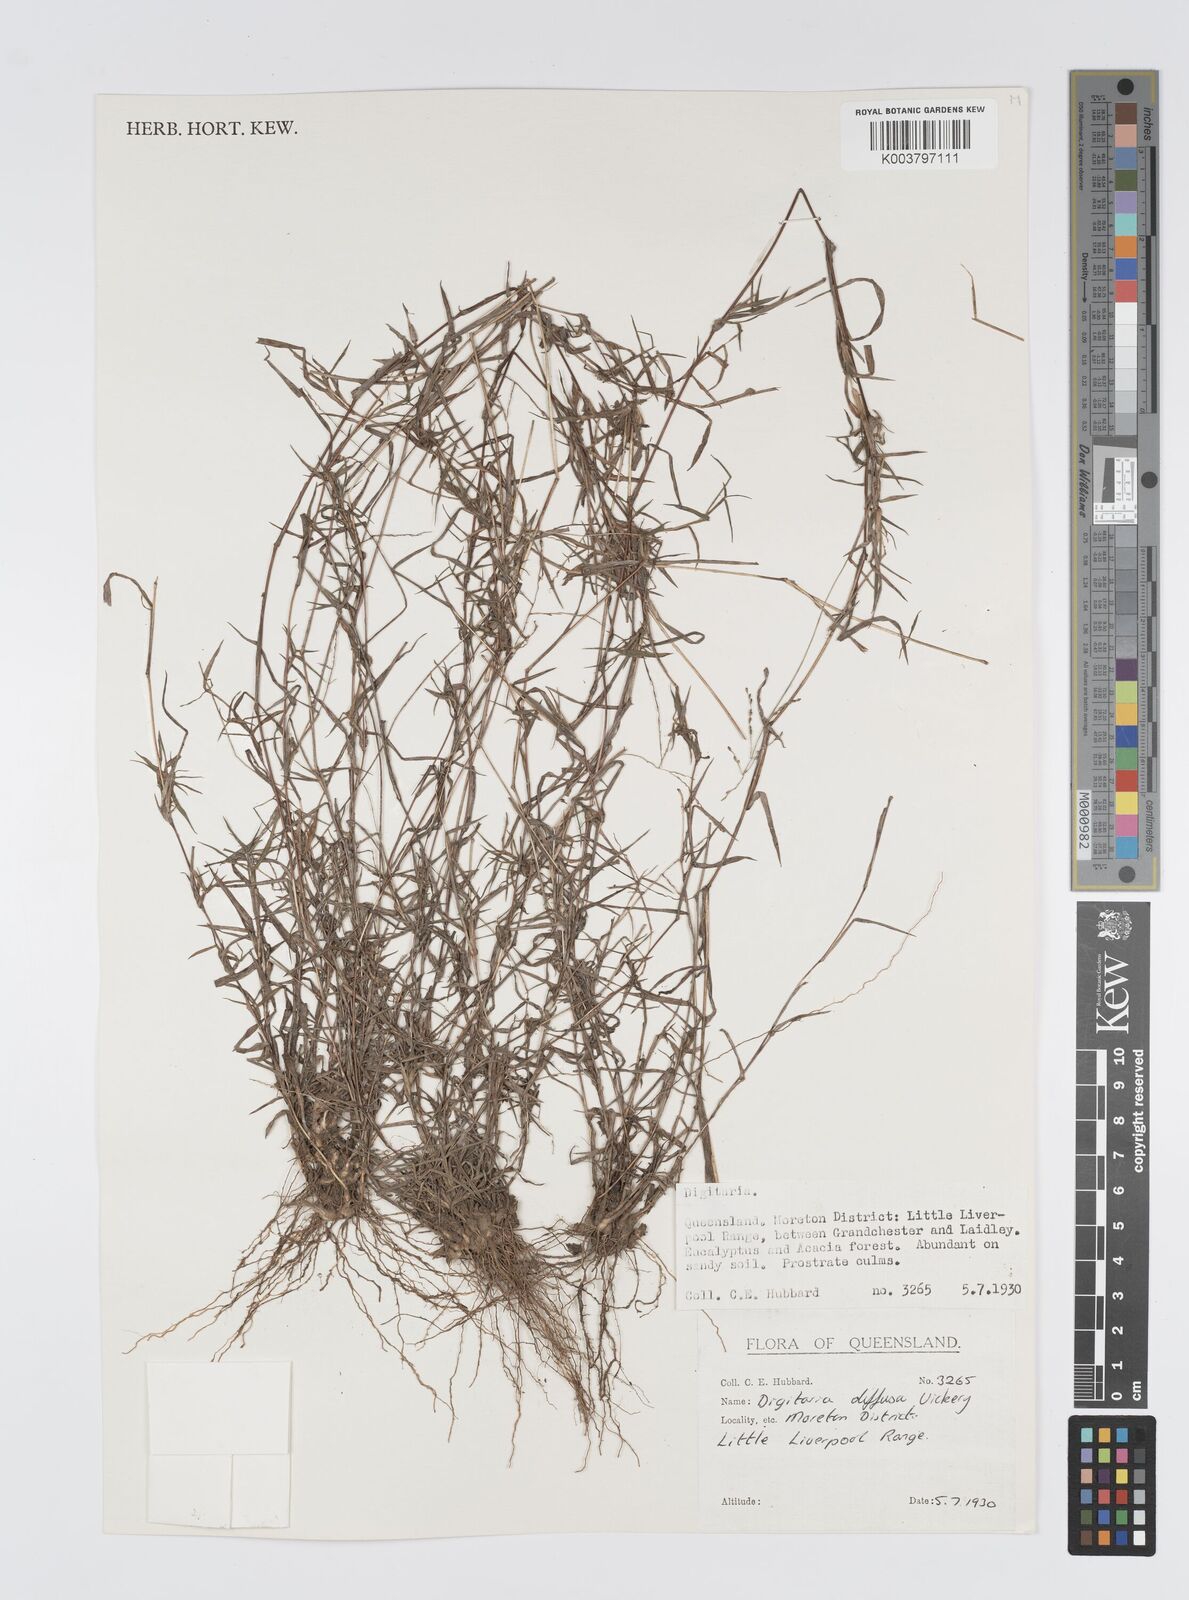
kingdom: Plantae
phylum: Tracheophyta
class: Liliopsida
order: Poales
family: Poaceae
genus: Digitaria
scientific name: Digitaria diffusa
